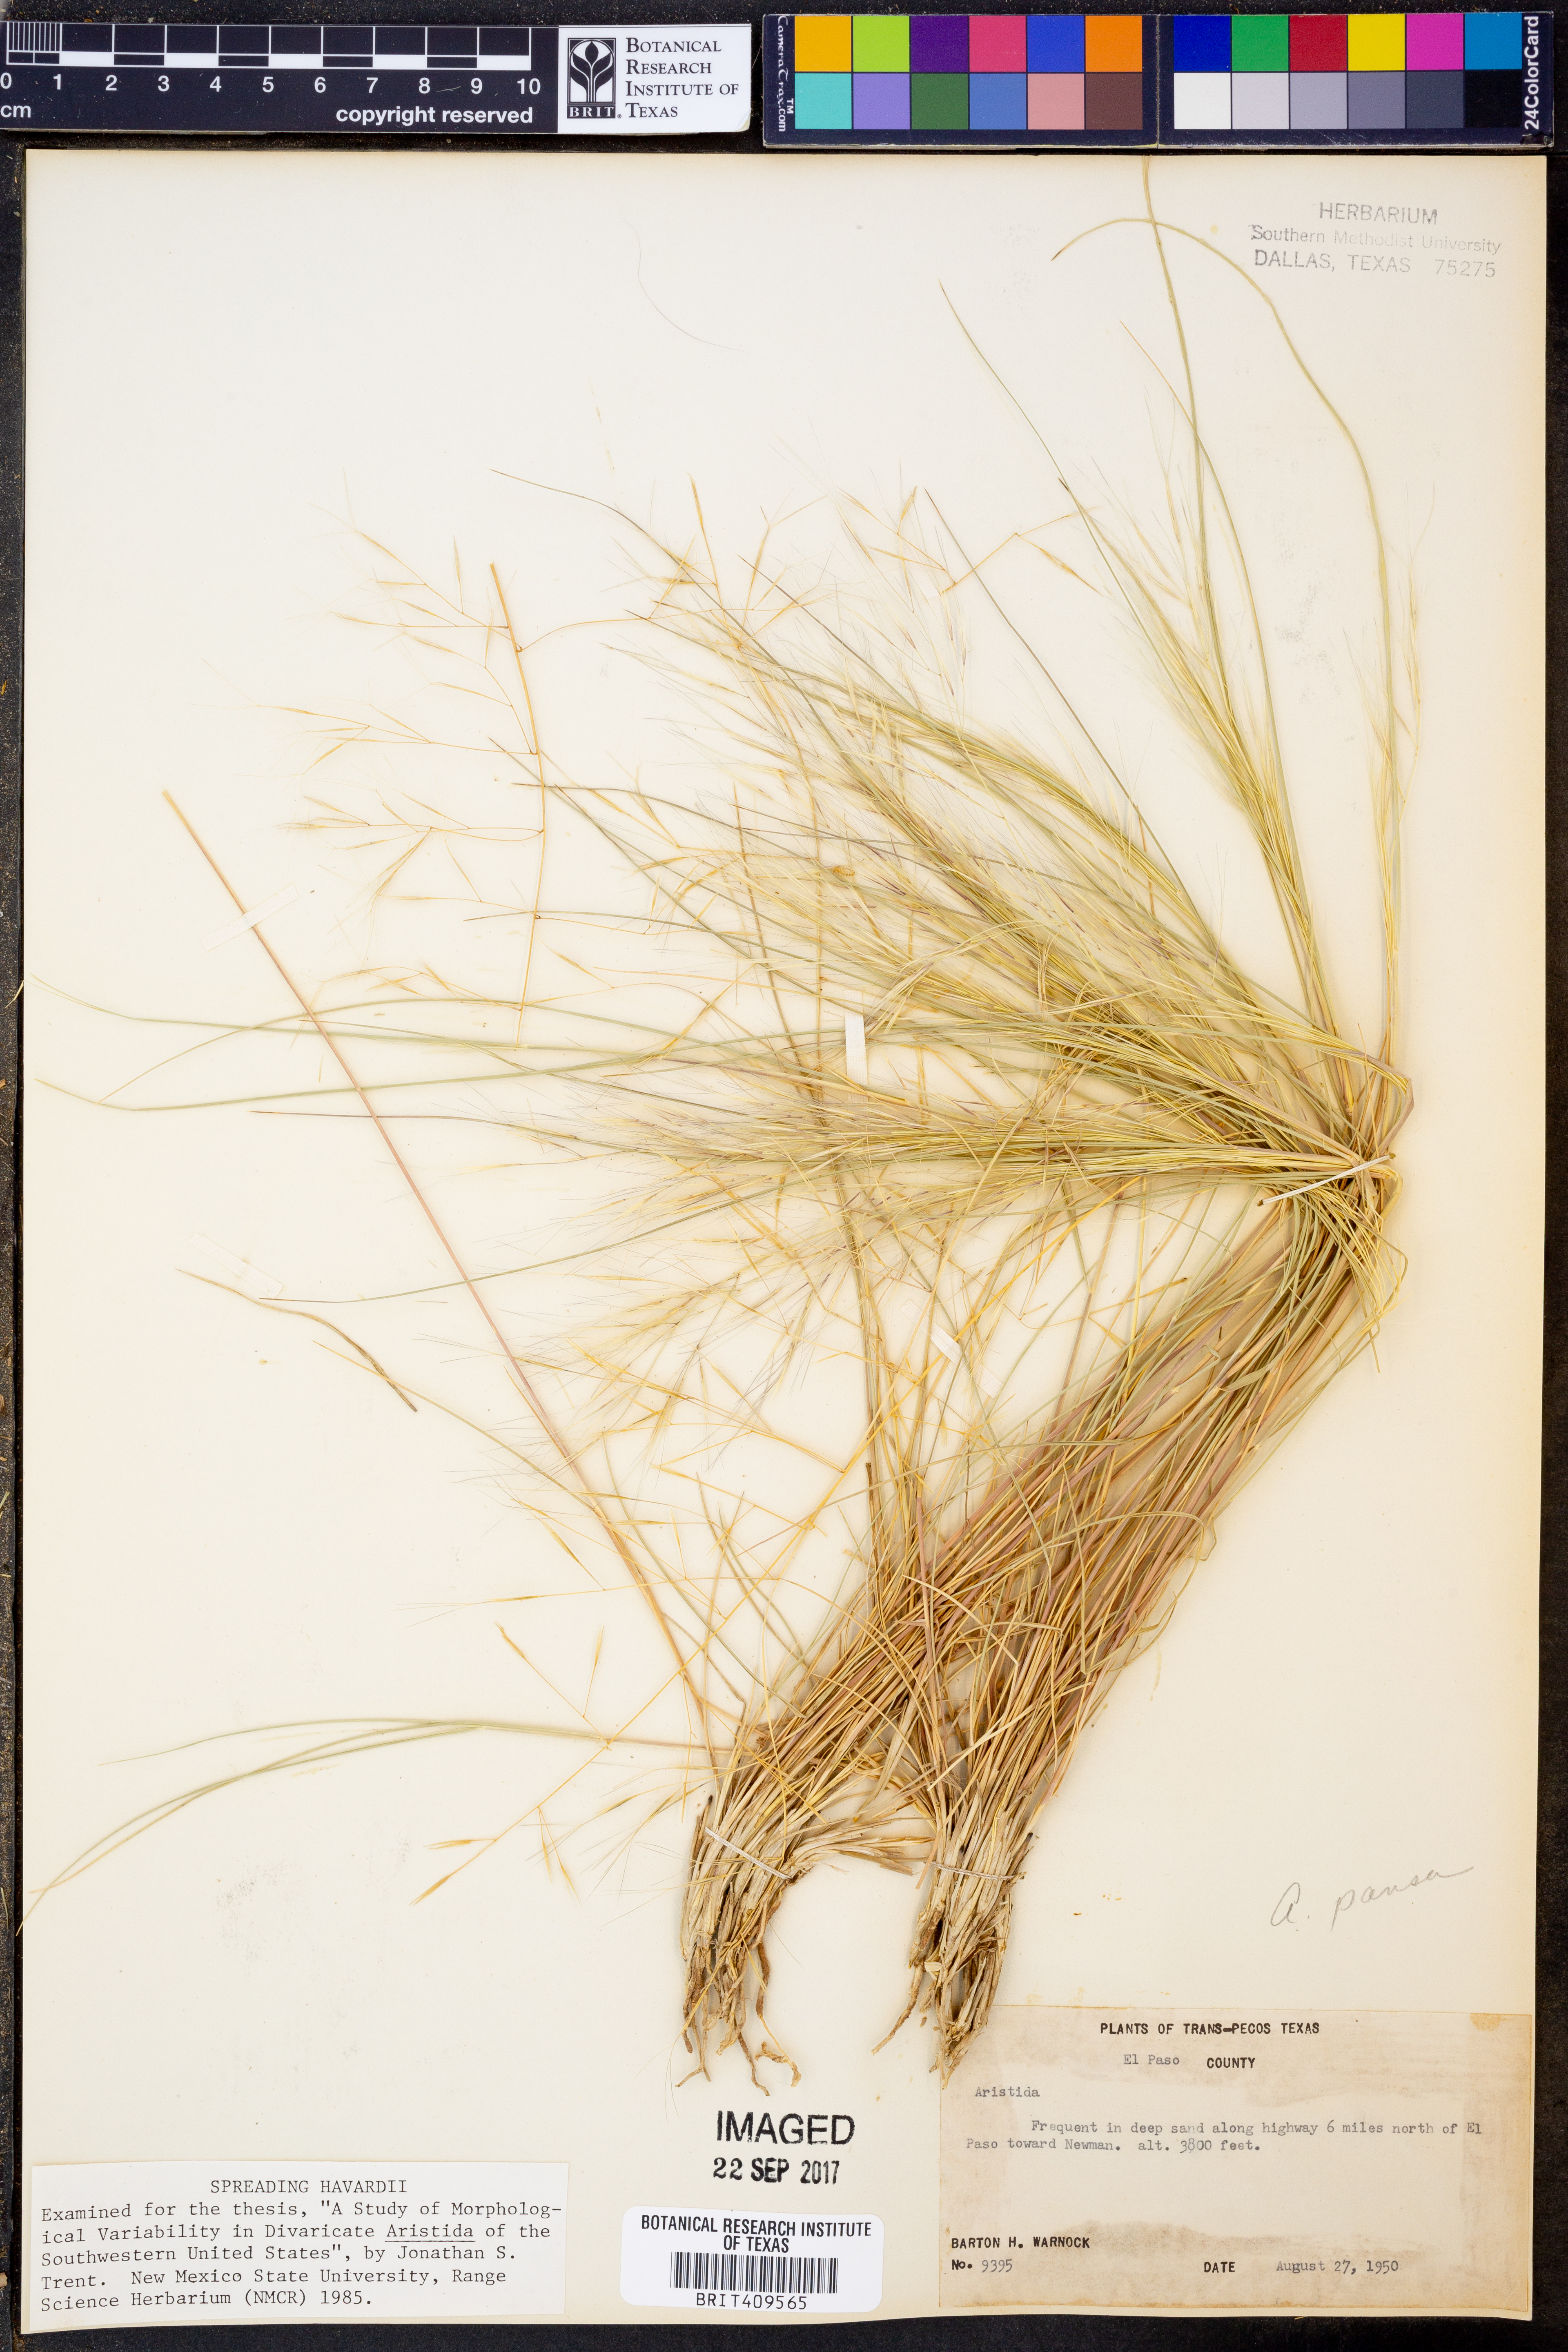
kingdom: Plantae
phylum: Tracheophyta
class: Liliopsida
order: Poales
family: Poaceae
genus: Aristida
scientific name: Aristida pansa
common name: Wooton's three-awn
